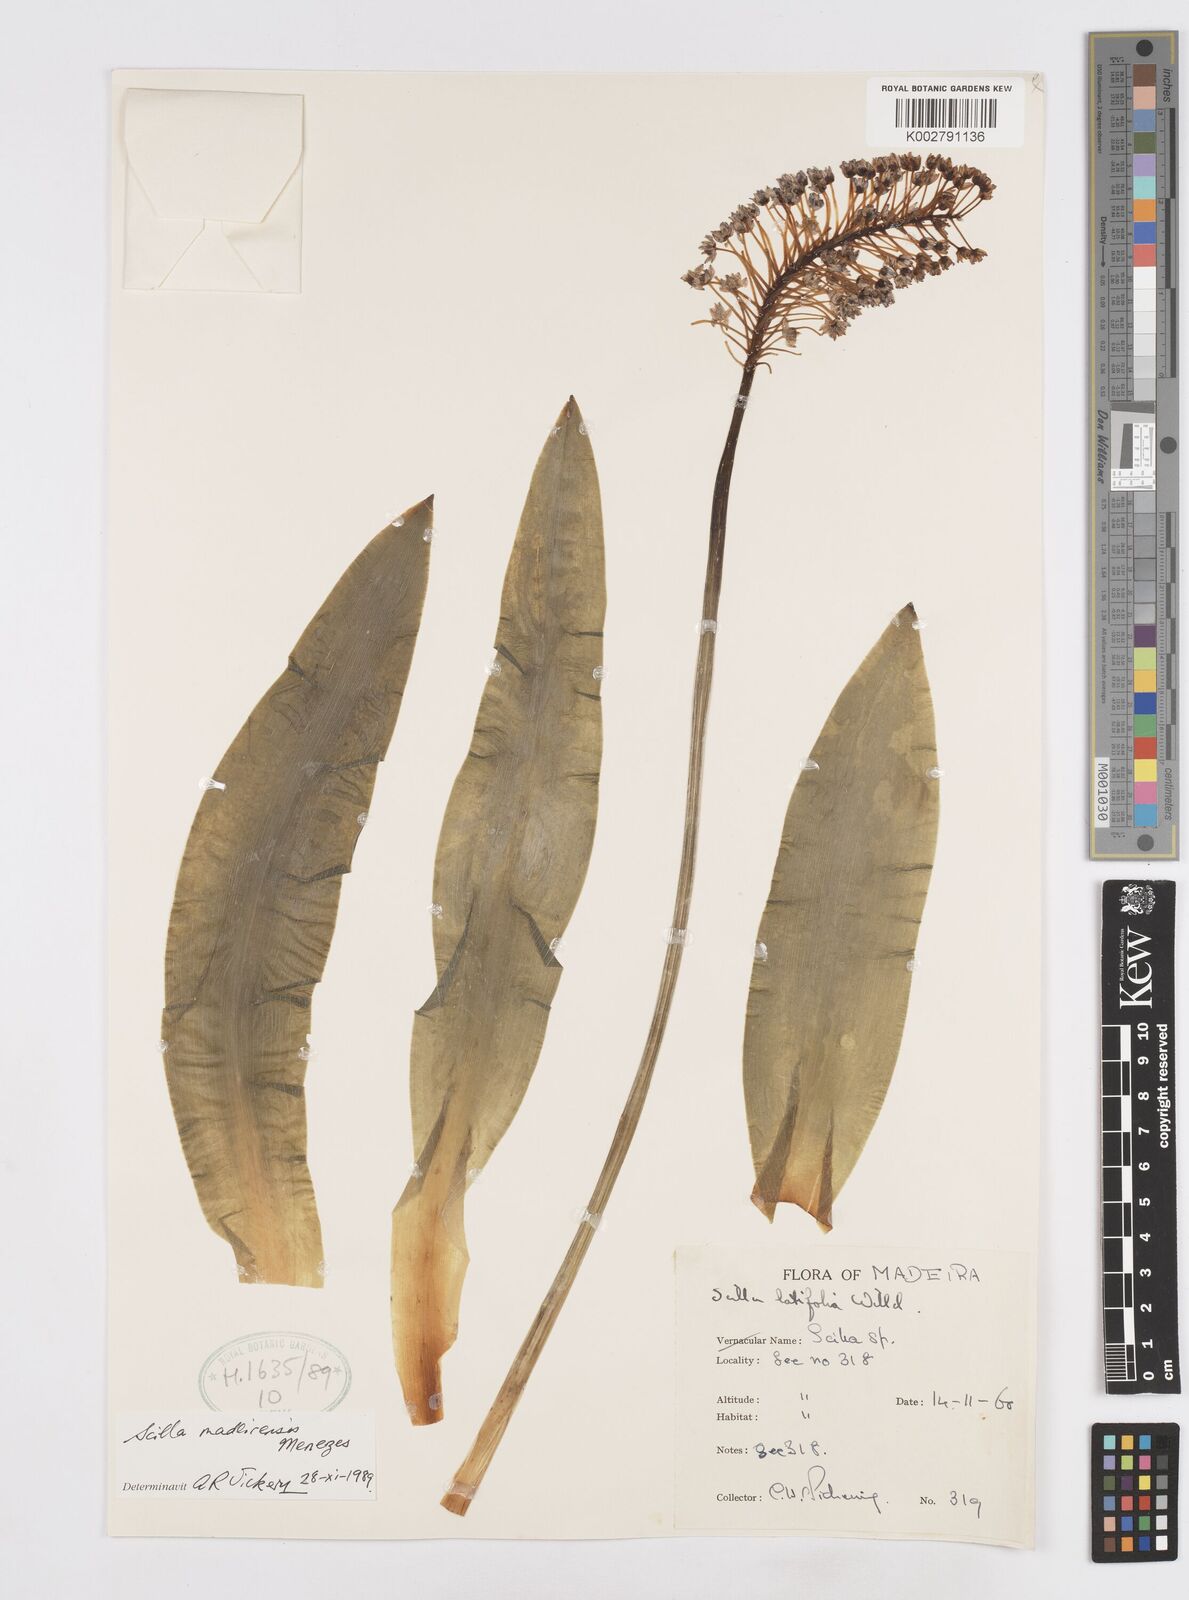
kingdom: Plantae
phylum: Tracheophyta
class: Liliopsida
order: Asparagales
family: Asparagaceae
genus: Scilla
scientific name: Scilla madeirensis
